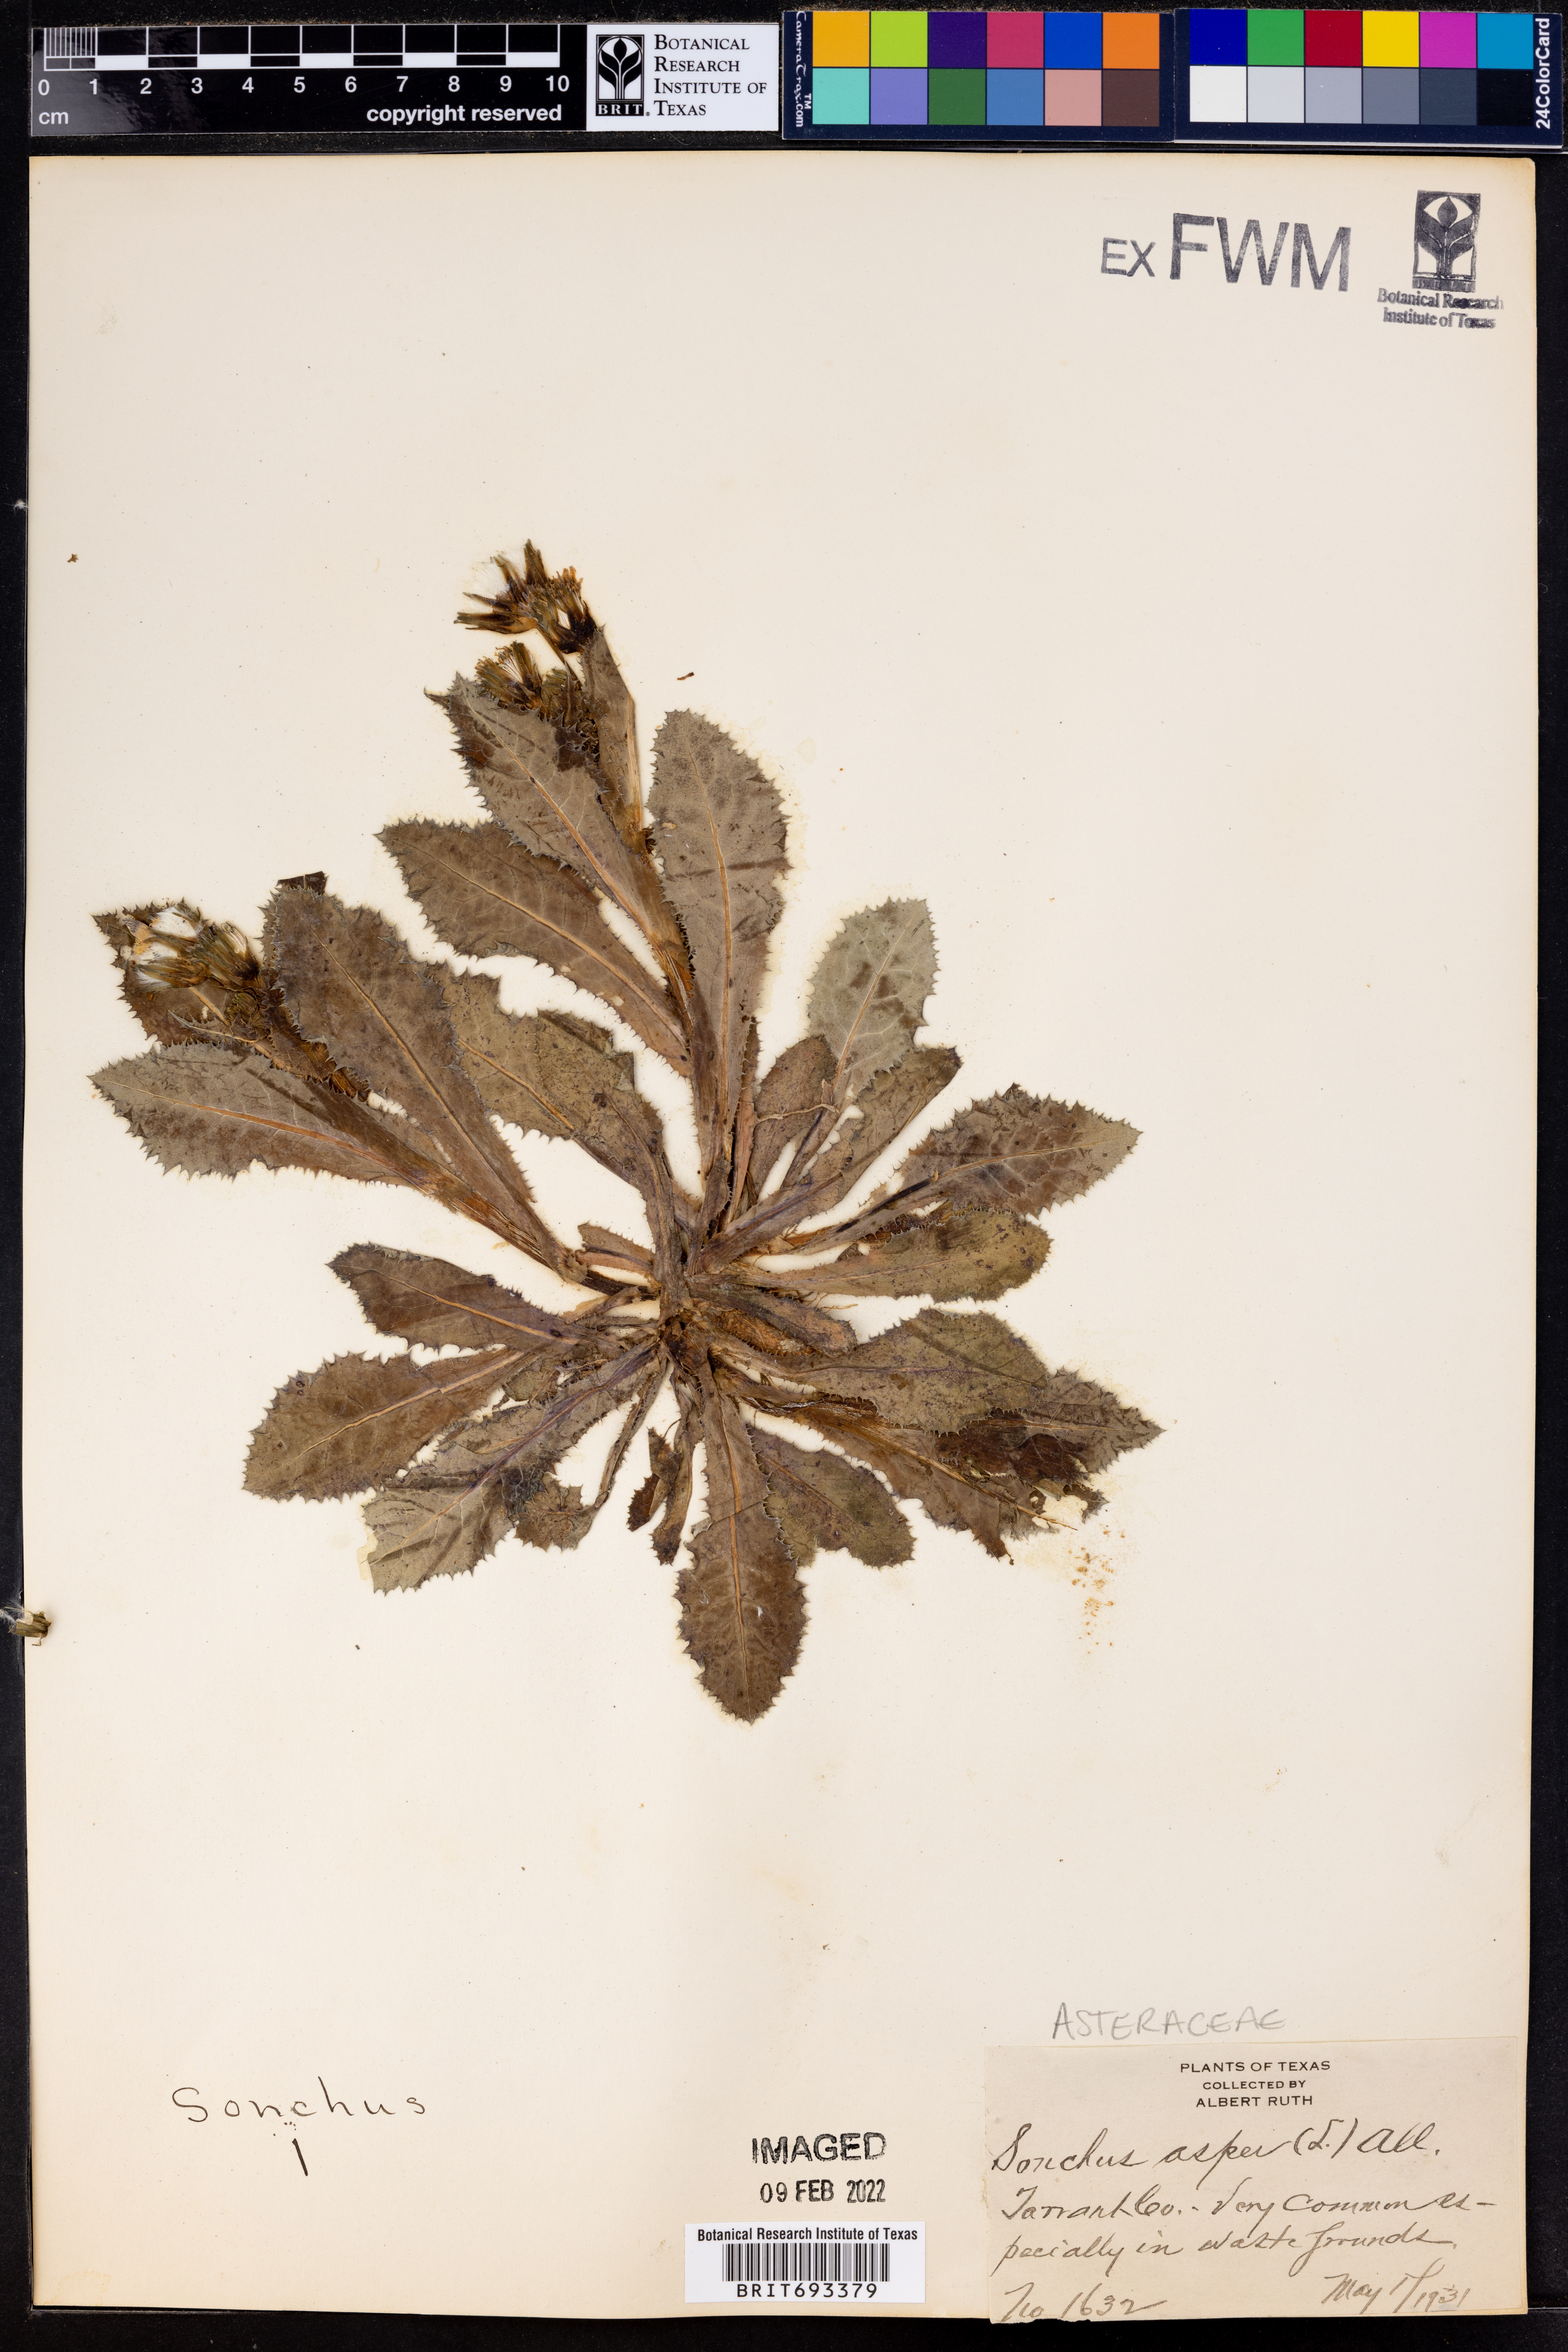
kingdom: Plantae
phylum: Tracheophyta
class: Magnoliopsida
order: Asterales
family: Asteraceae
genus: Sonchus
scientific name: Sonchus asper
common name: Prickly sow-thistle
